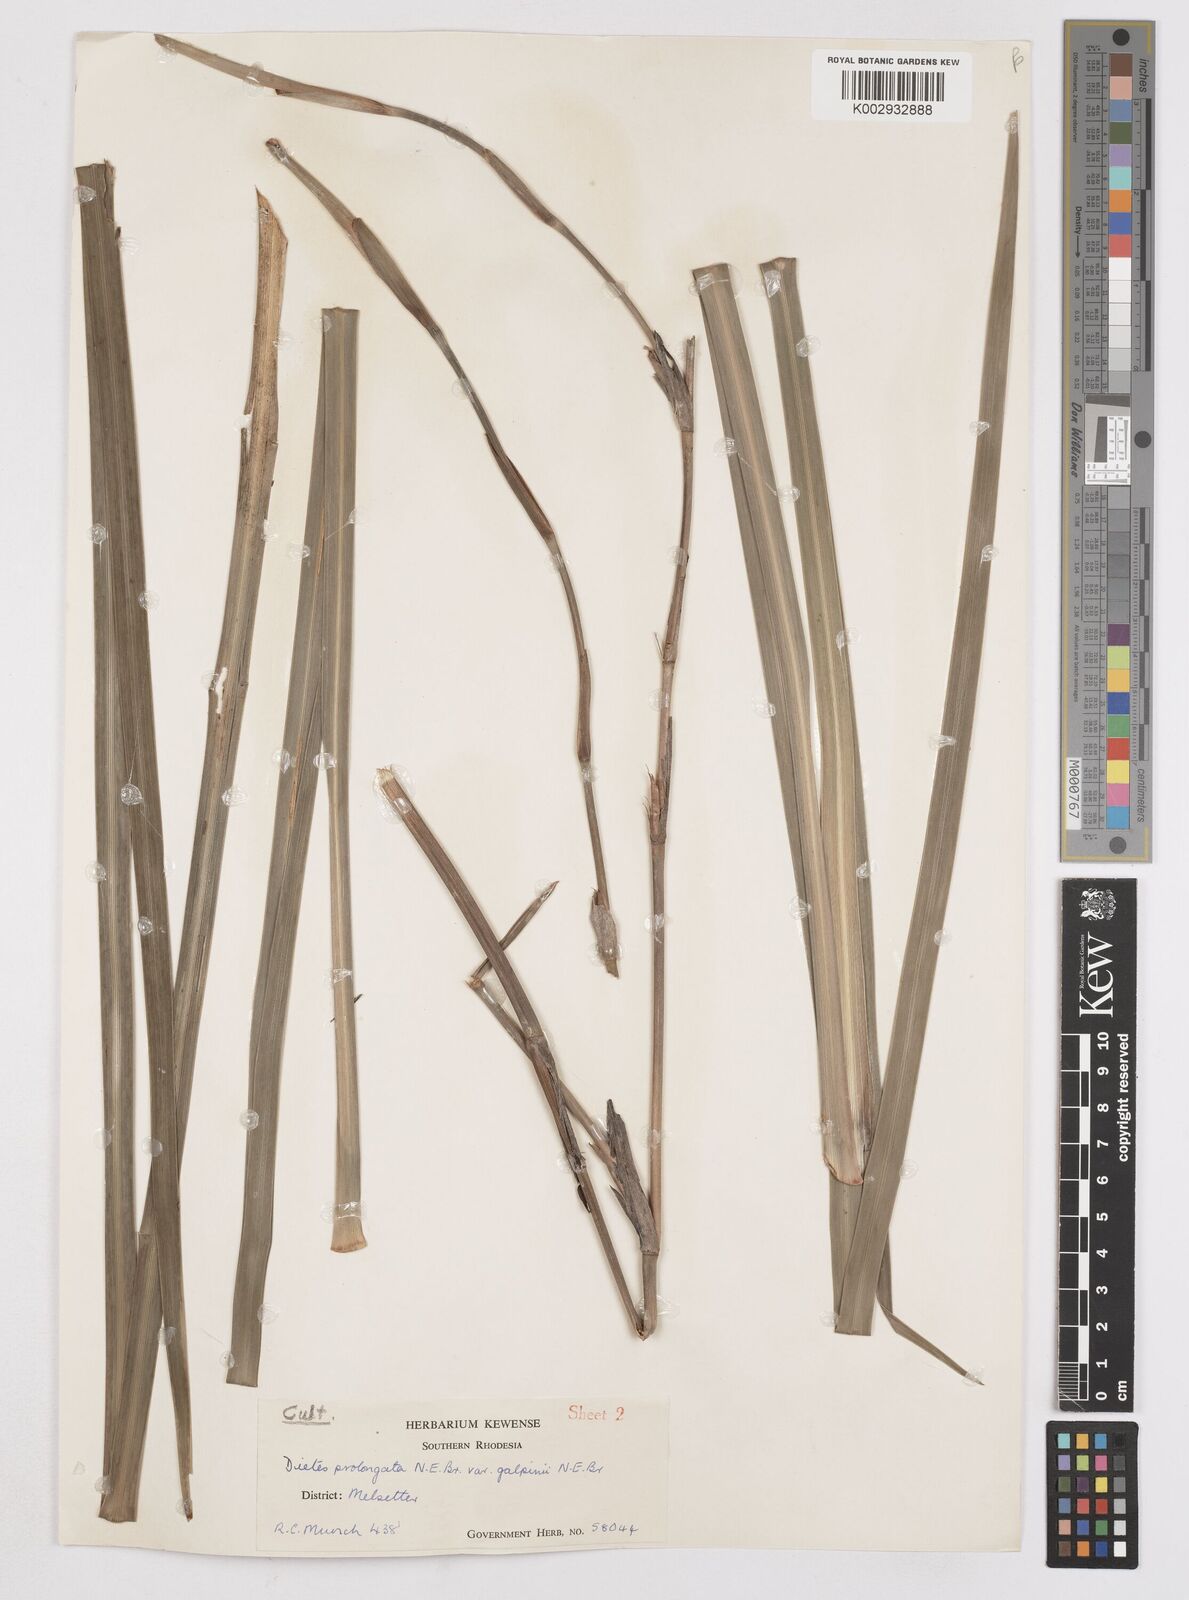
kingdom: Plantae
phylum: Tracheophyta
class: Liliopsida
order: Asparagales
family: Iridaceae
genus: Dietes
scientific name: Dietes iridioides
